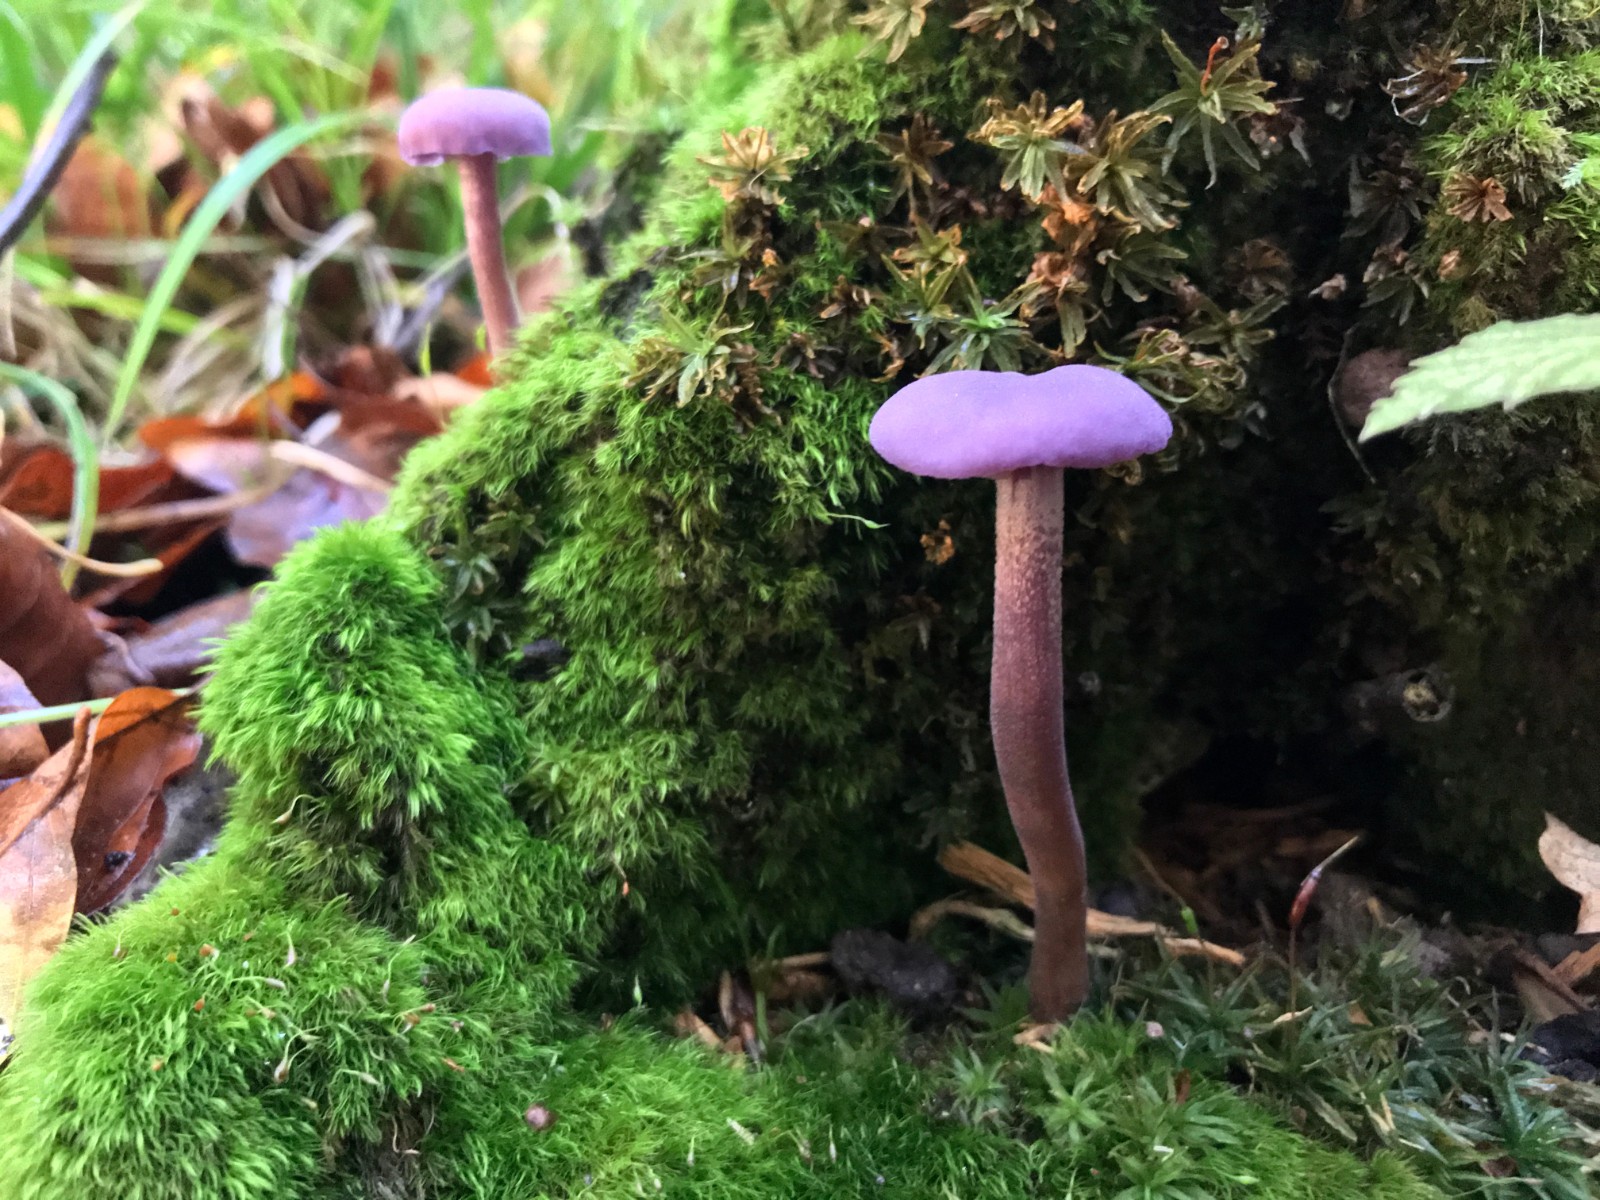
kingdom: Fungi
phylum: Basidiomycota
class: Agaricomycetes
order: Agaricales
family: Hydnangiaceae
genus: Laccaria
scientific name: Laccaria amethystina
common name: violet ametysthat
